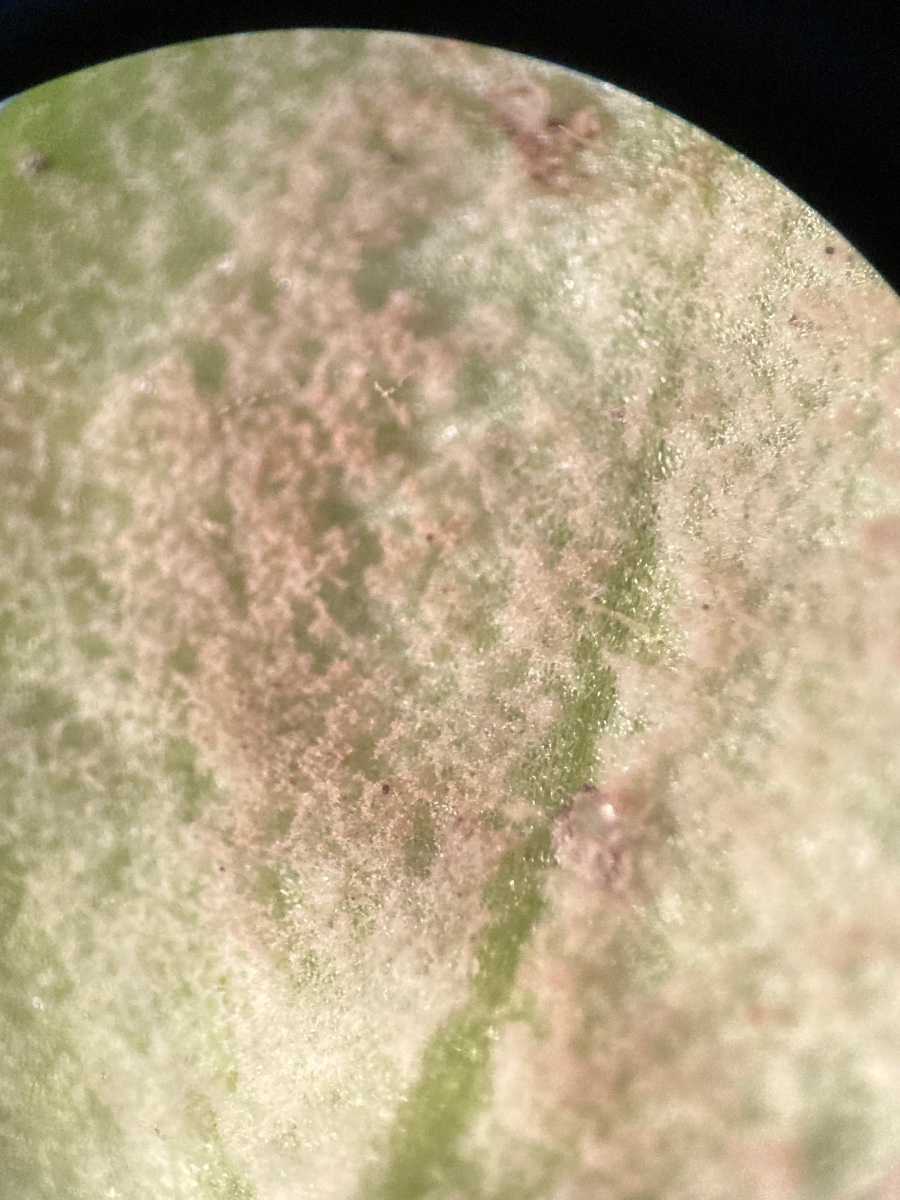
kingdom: Chromista
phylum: Oomycota
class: Peronosporea
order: Peronosporales
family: Peronosporaceae
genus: Peronospora
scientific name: Peronospora arvensis
